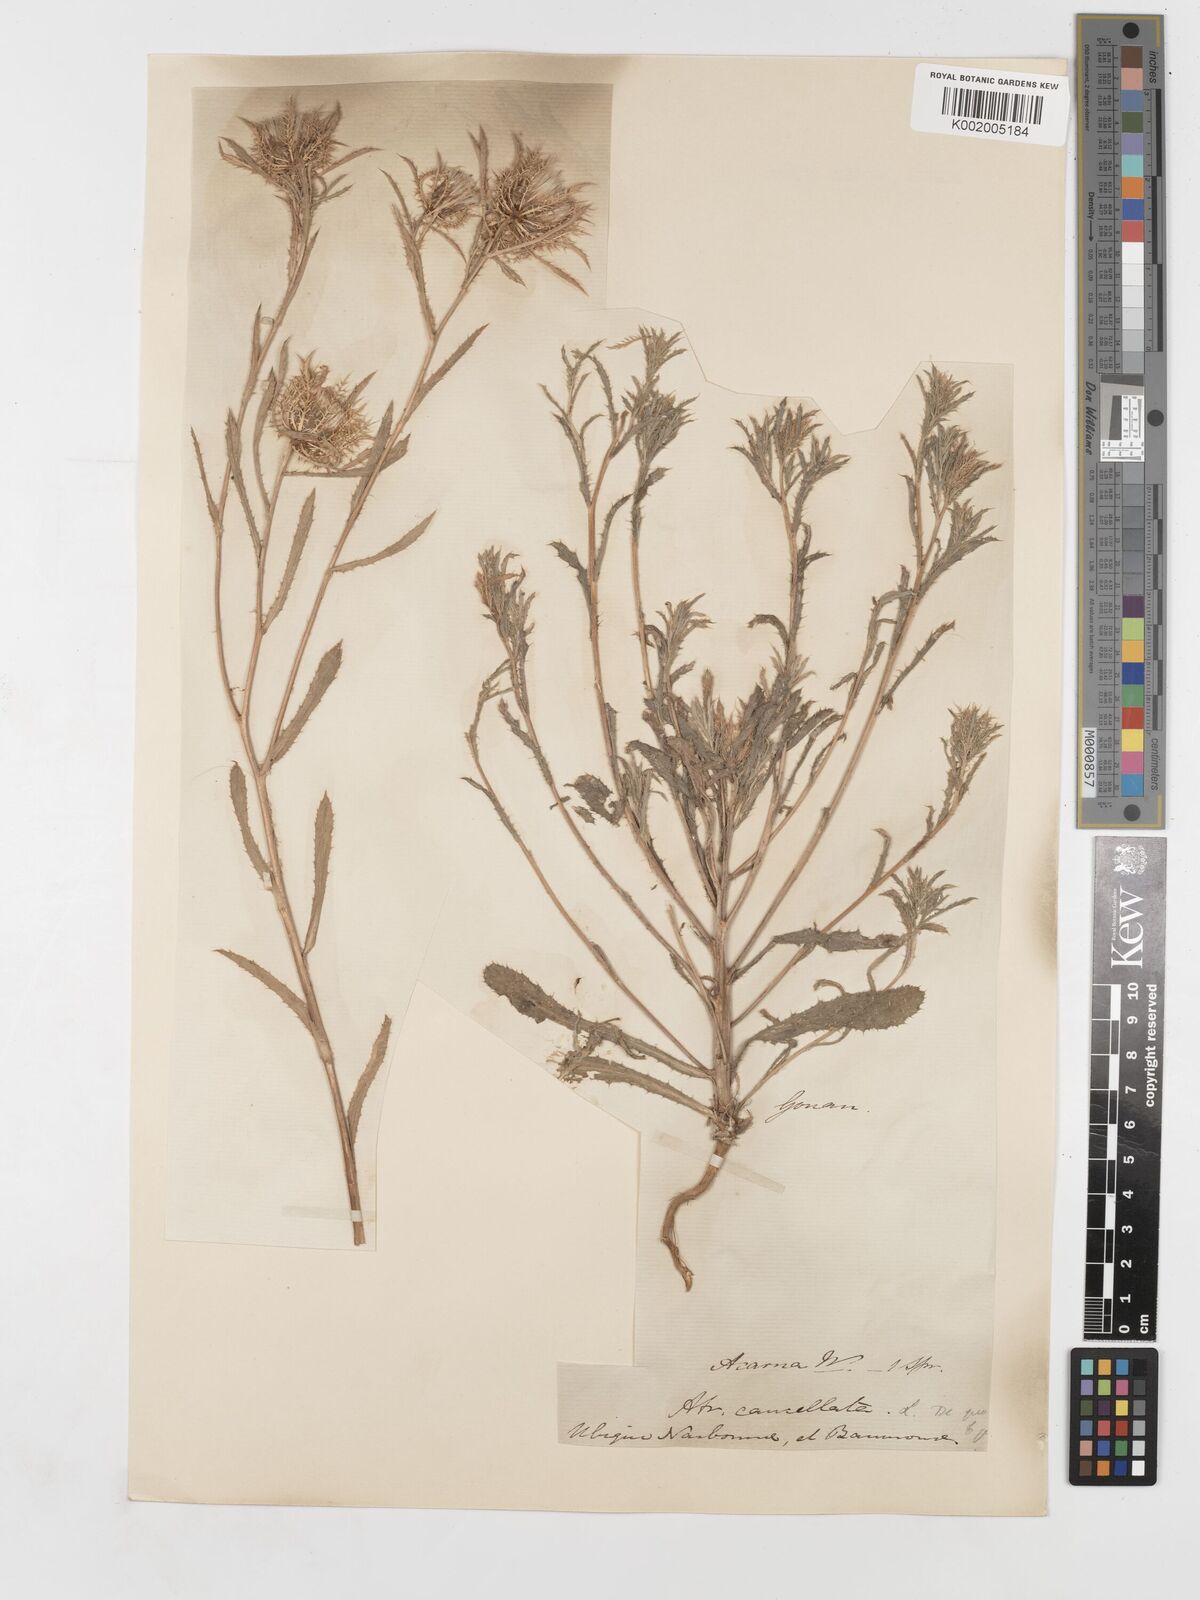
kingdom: Plantae
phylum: Tracheophyta
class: Magnoliopsida
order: Asterales
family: Asteraceae
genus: Atractylis
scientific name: Atractylis cancellata
